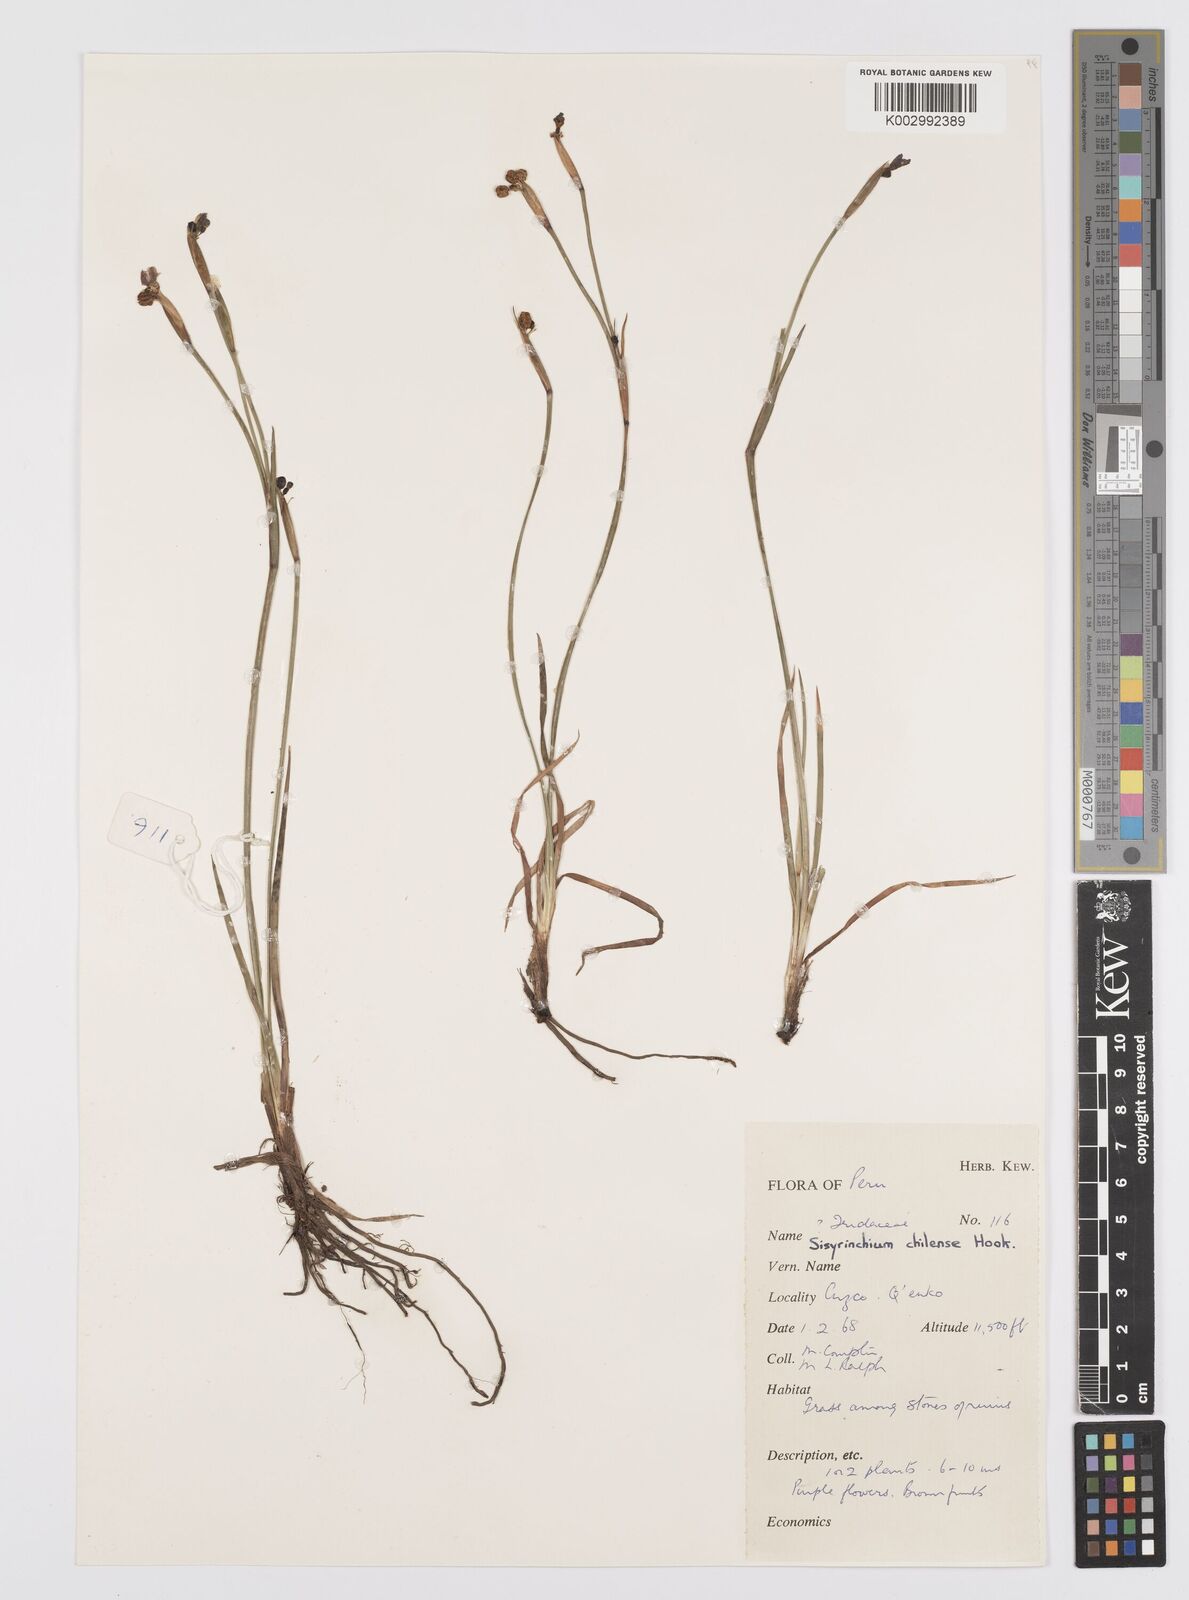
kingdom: Plantae
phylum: Tracheophyta
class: Liliopsida
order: Asparagales
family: Iridaceae
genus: Sisyrinchium
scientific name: Sisyrinchium chilense
